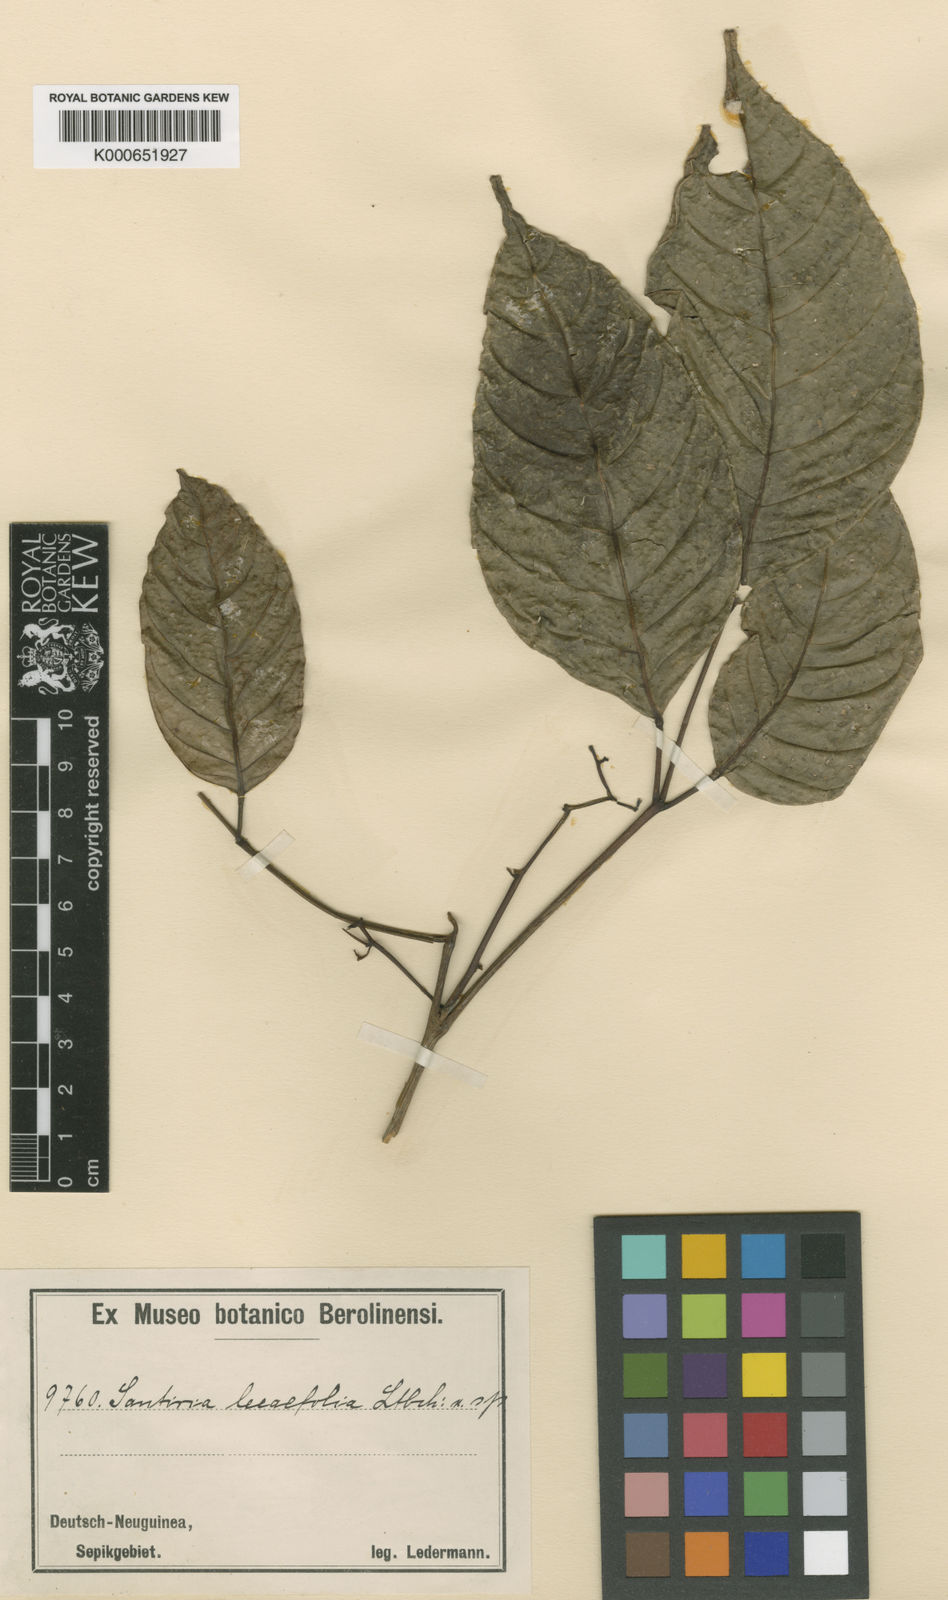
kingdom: Plantae
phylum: Tracheophyta
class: Magnoliopsida
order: Sapindales
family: Burseraceae
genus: Haplolobus
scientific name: Haplolobus floribundus
